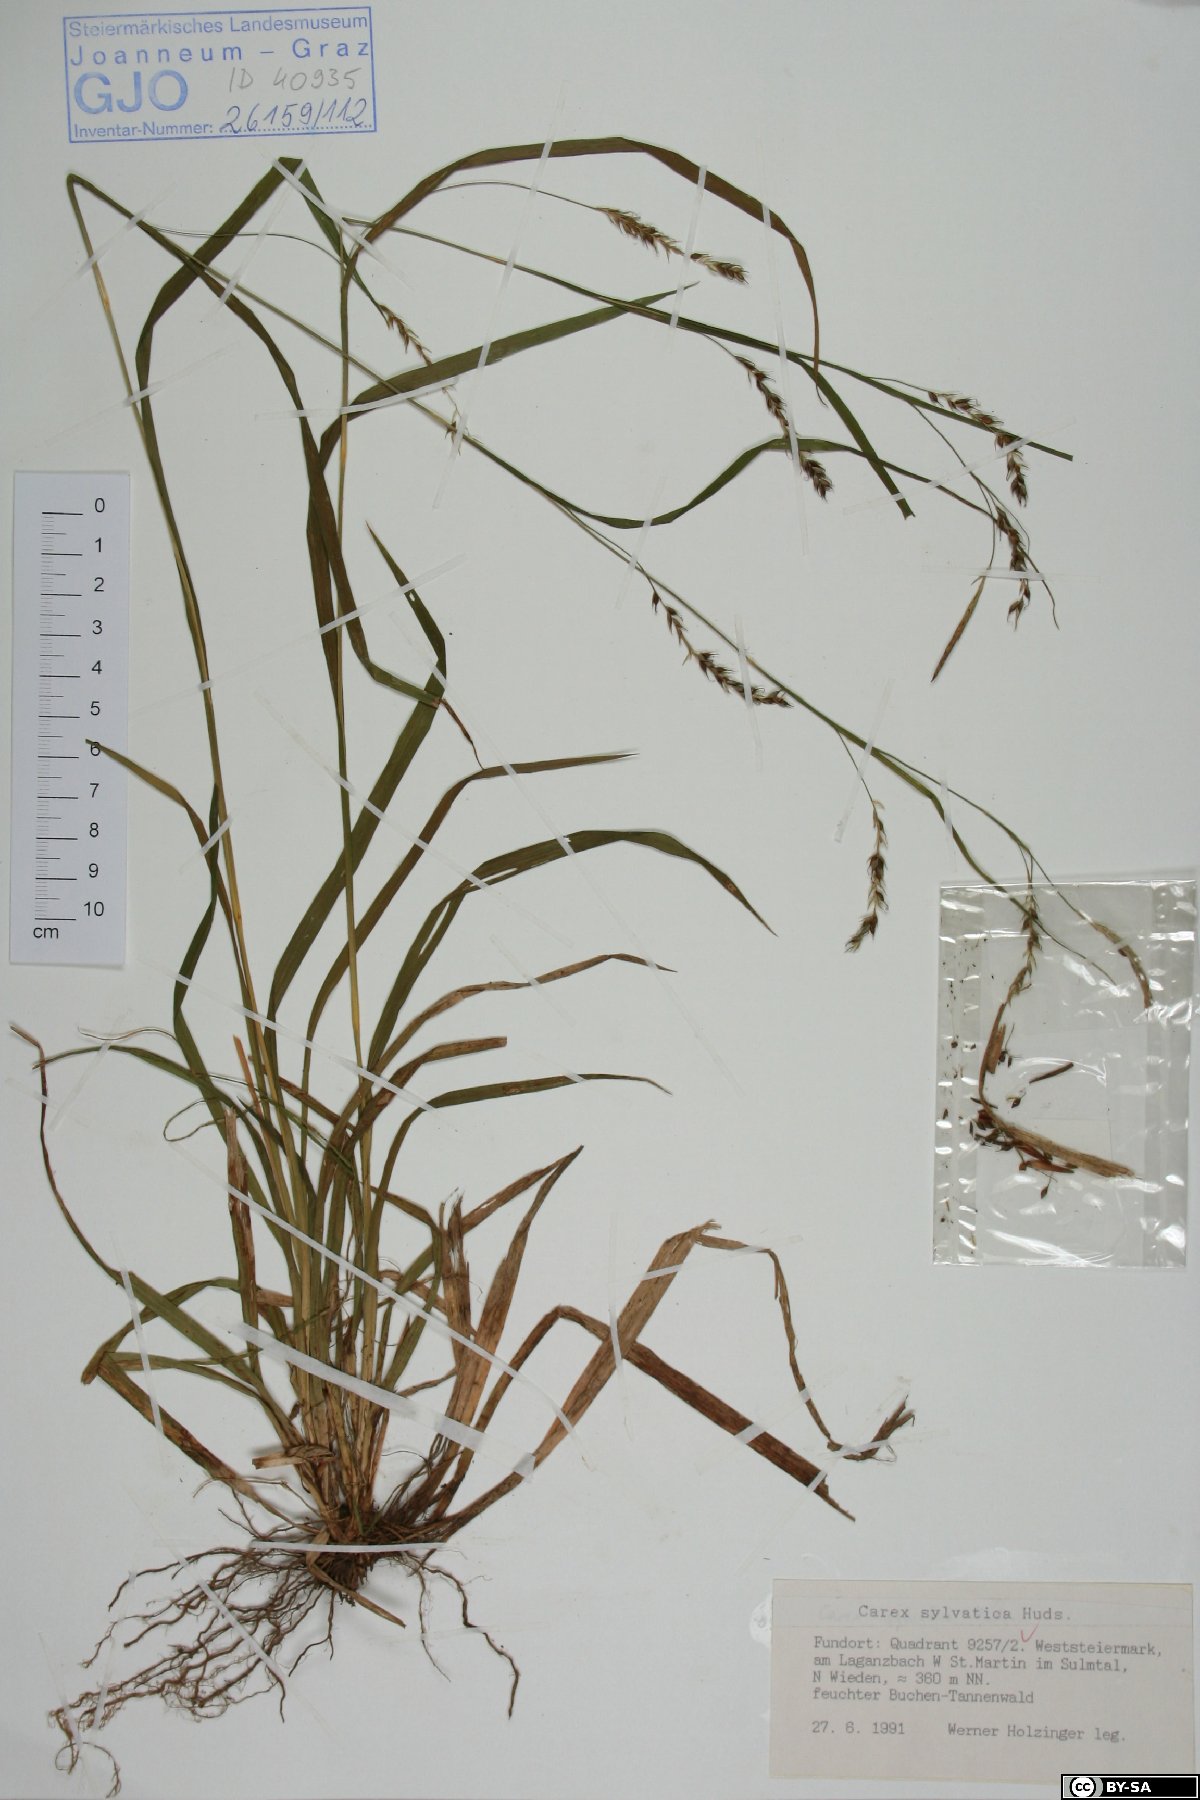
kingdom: Plantae
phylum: Tracheophyta
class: Liliopsida
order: Poales
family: Cyperaceae
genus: Carex
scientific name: Carex sylvatica
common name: Wood-sedge
